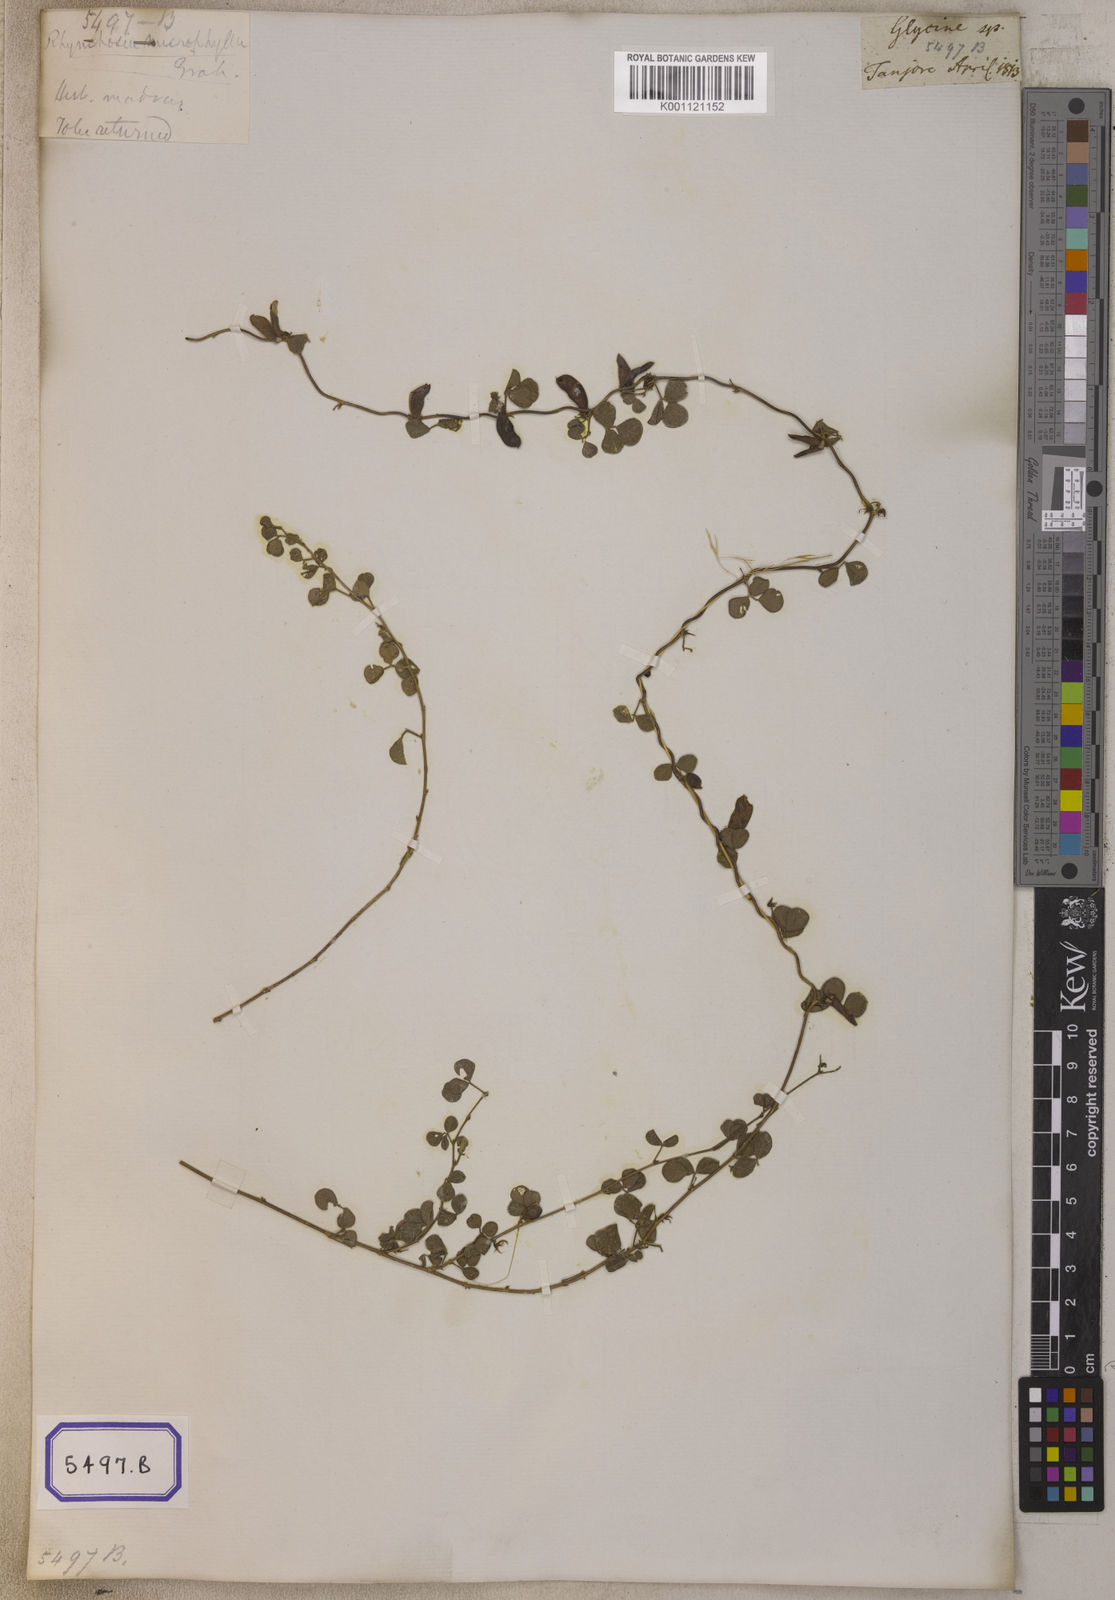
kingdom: Plantae
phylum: Tracheophyta
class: Magnoliopsida
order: Fabales
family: Fabaceae
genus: Rhynchosia
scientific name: Rhynchosia minima
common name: Least snoutbean
